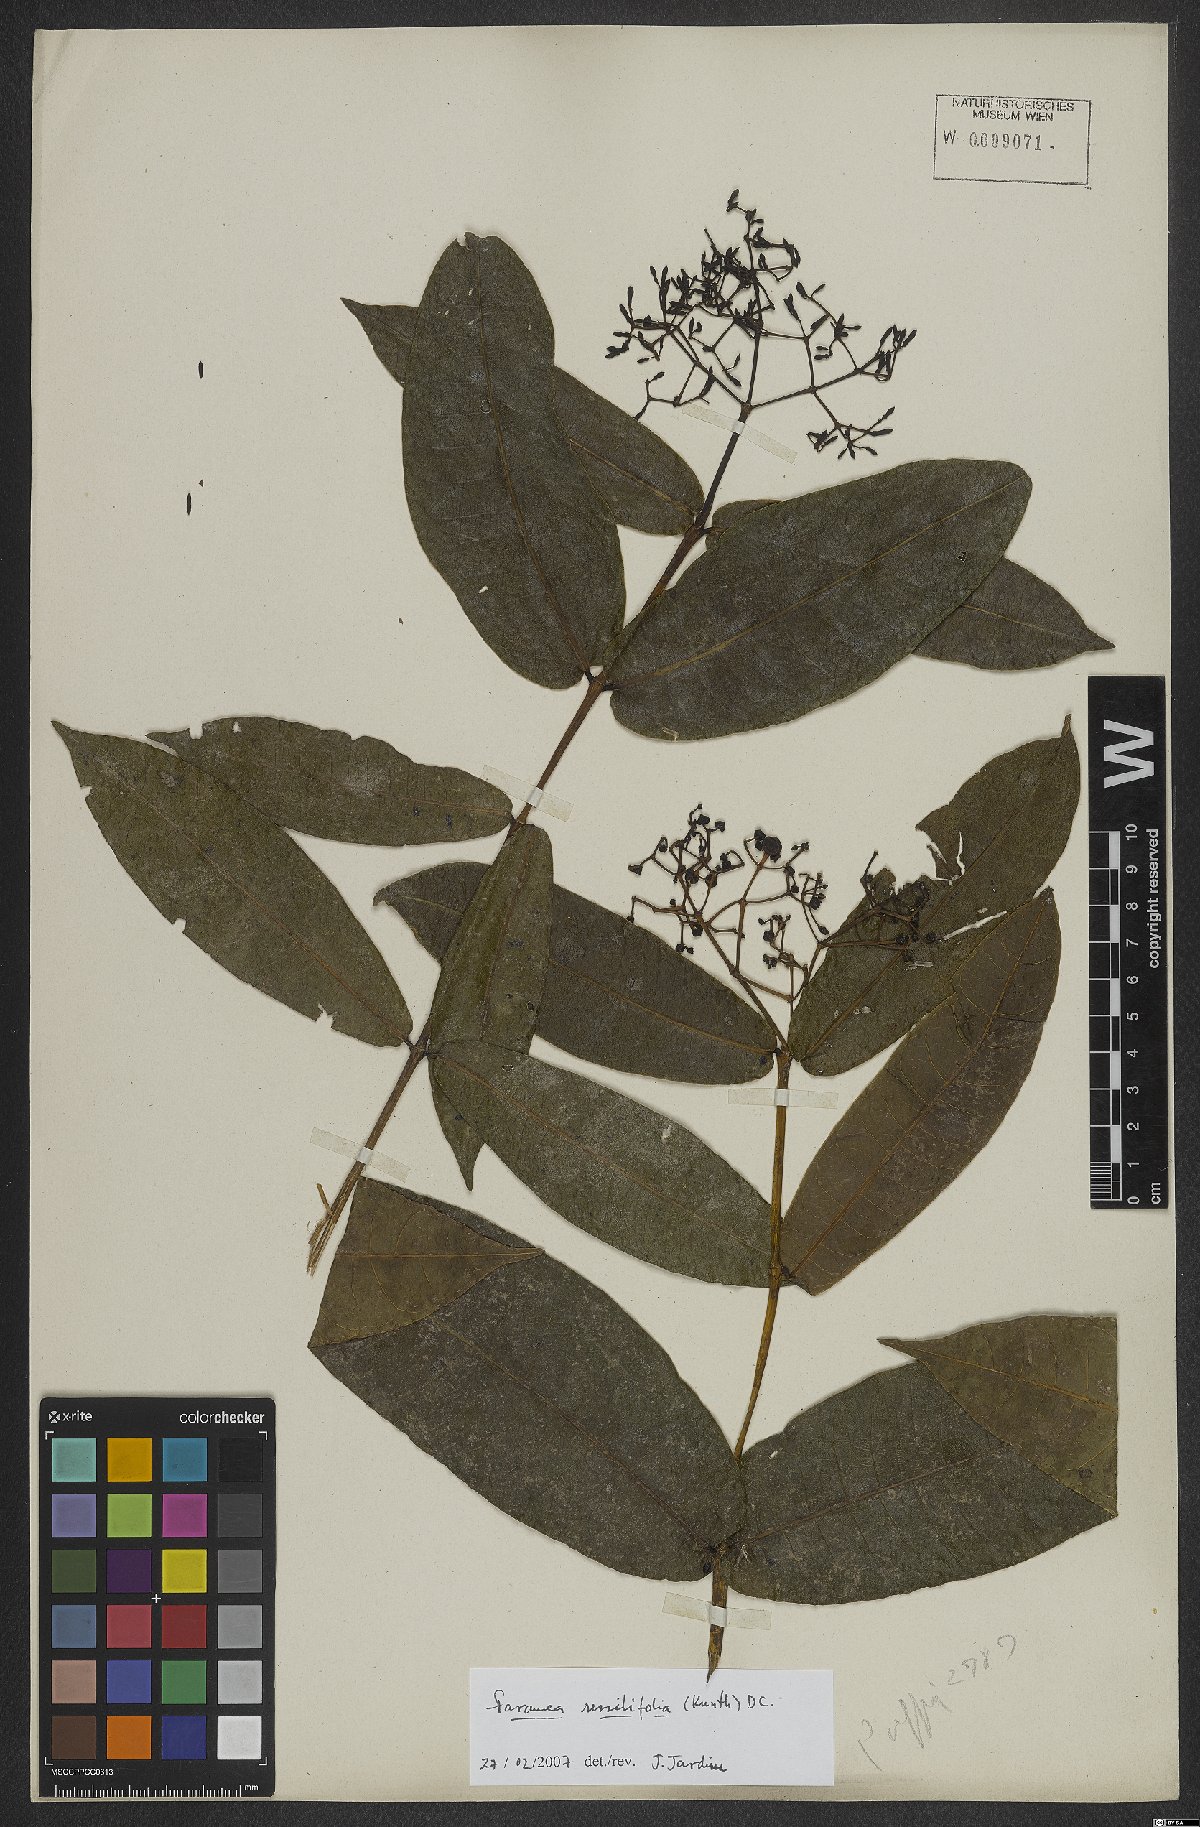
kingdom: Plantae
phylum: Tracheophyta
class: Magnoliopsida
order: Gentianales
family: Rubiaceae
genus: Faramea
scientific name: Faramea sessilifolia
